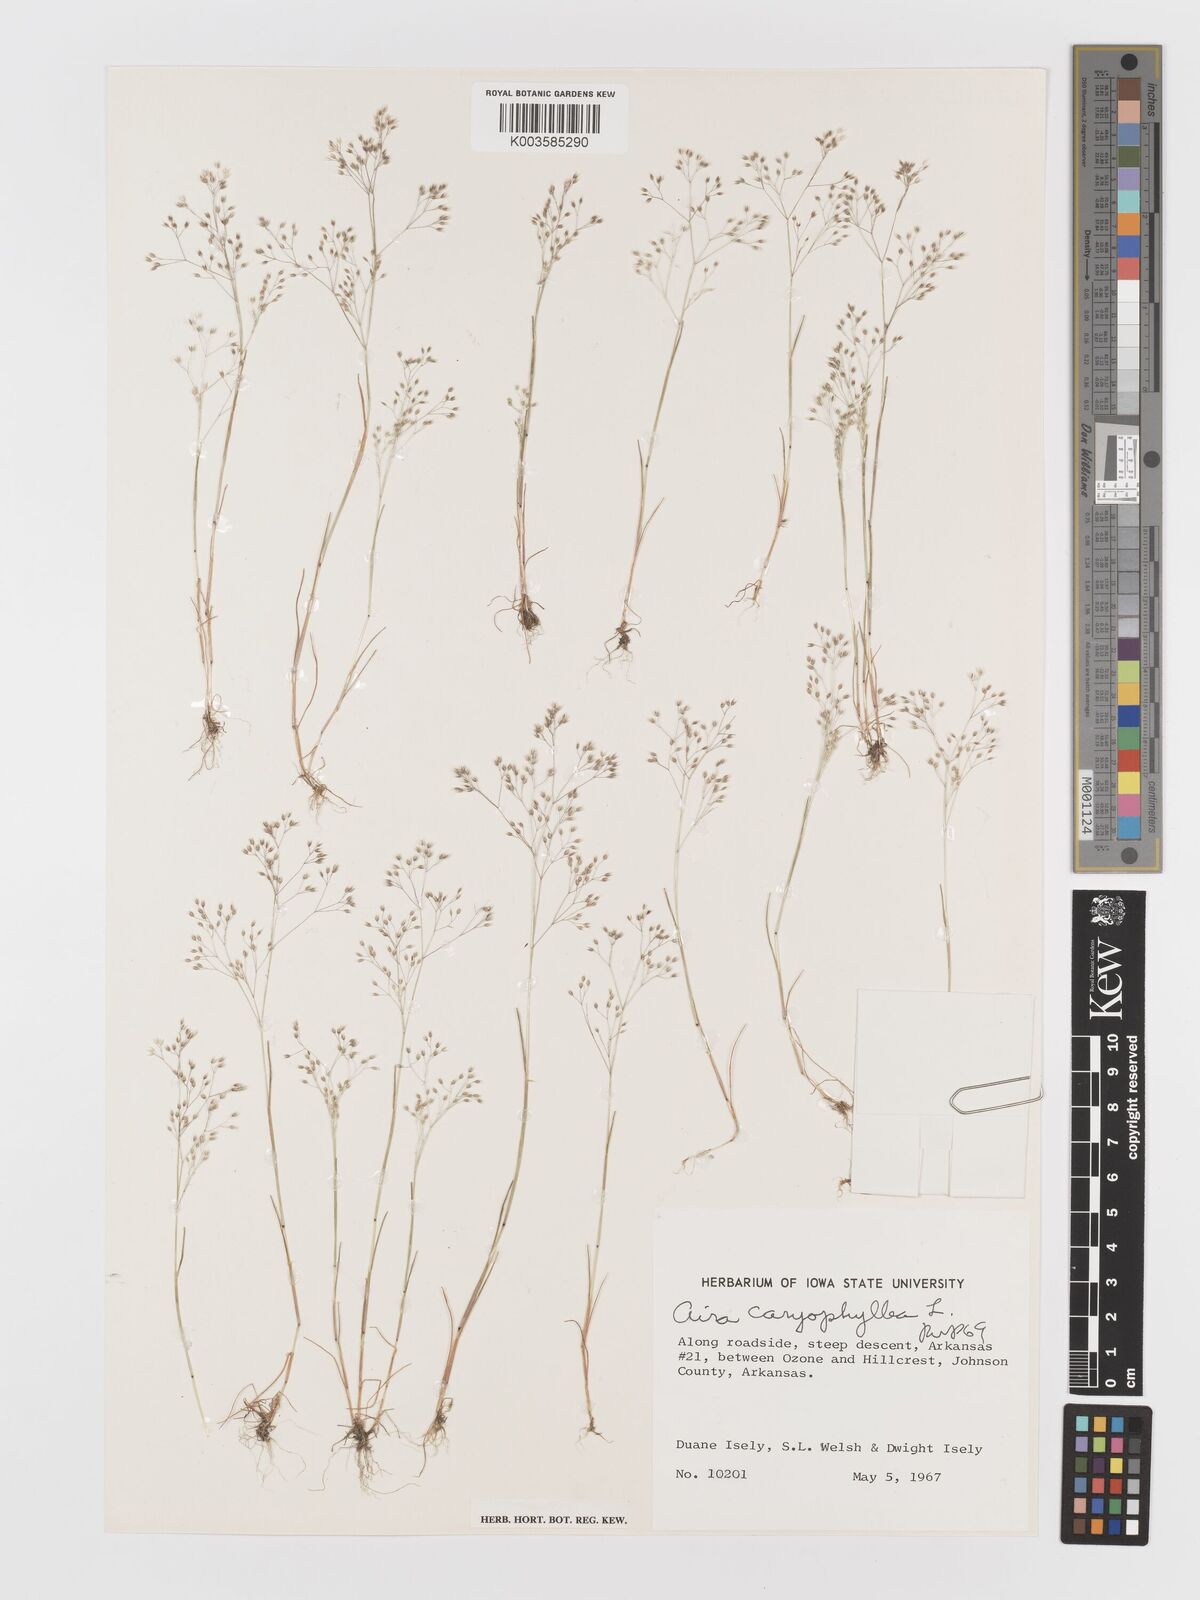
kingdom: Plantae
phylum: Tracheophyta
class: Liliopsida
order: Poales
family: Poaceae
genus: Aira
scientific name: Aira caryophyllea
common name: Silver hairgrass
